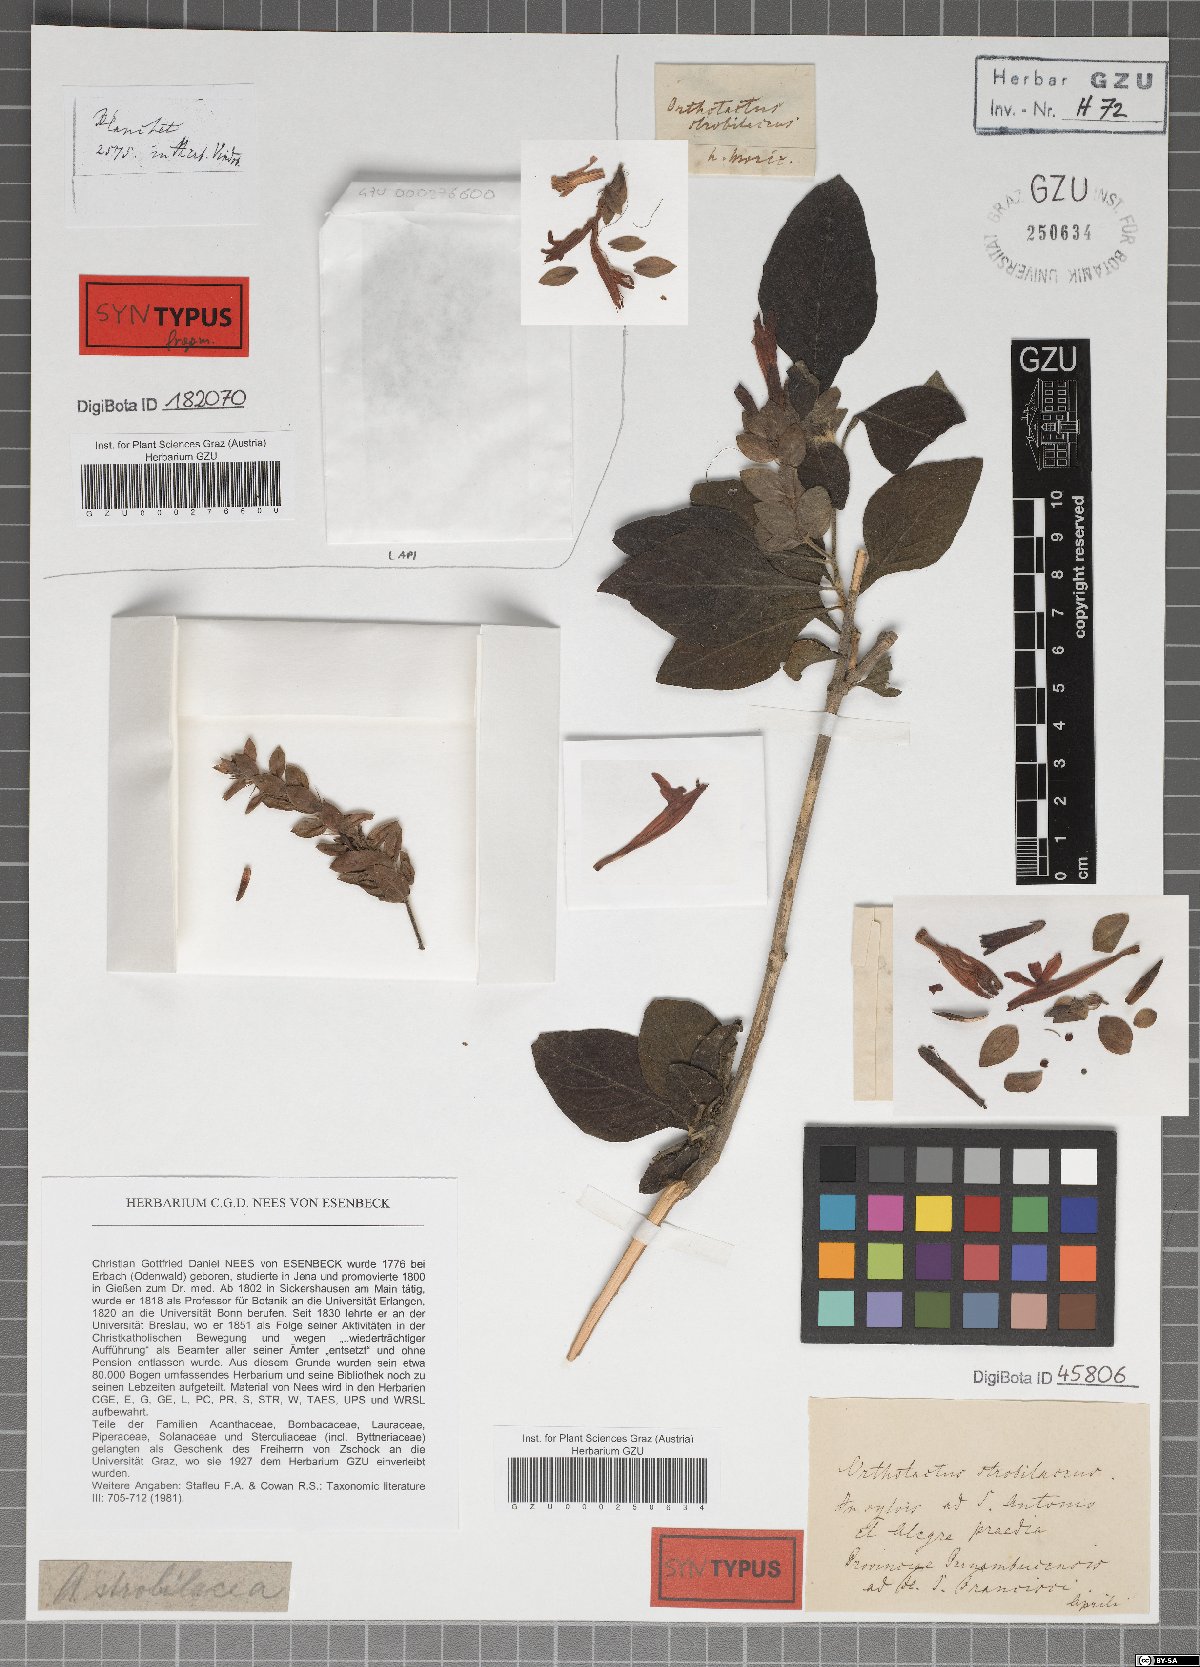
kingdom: Plantae
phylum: Tracheophyta
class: Magnoliopsida
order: Lamiales
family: Acanthaceae
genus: Justicia
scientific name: Justicia aequilabris
